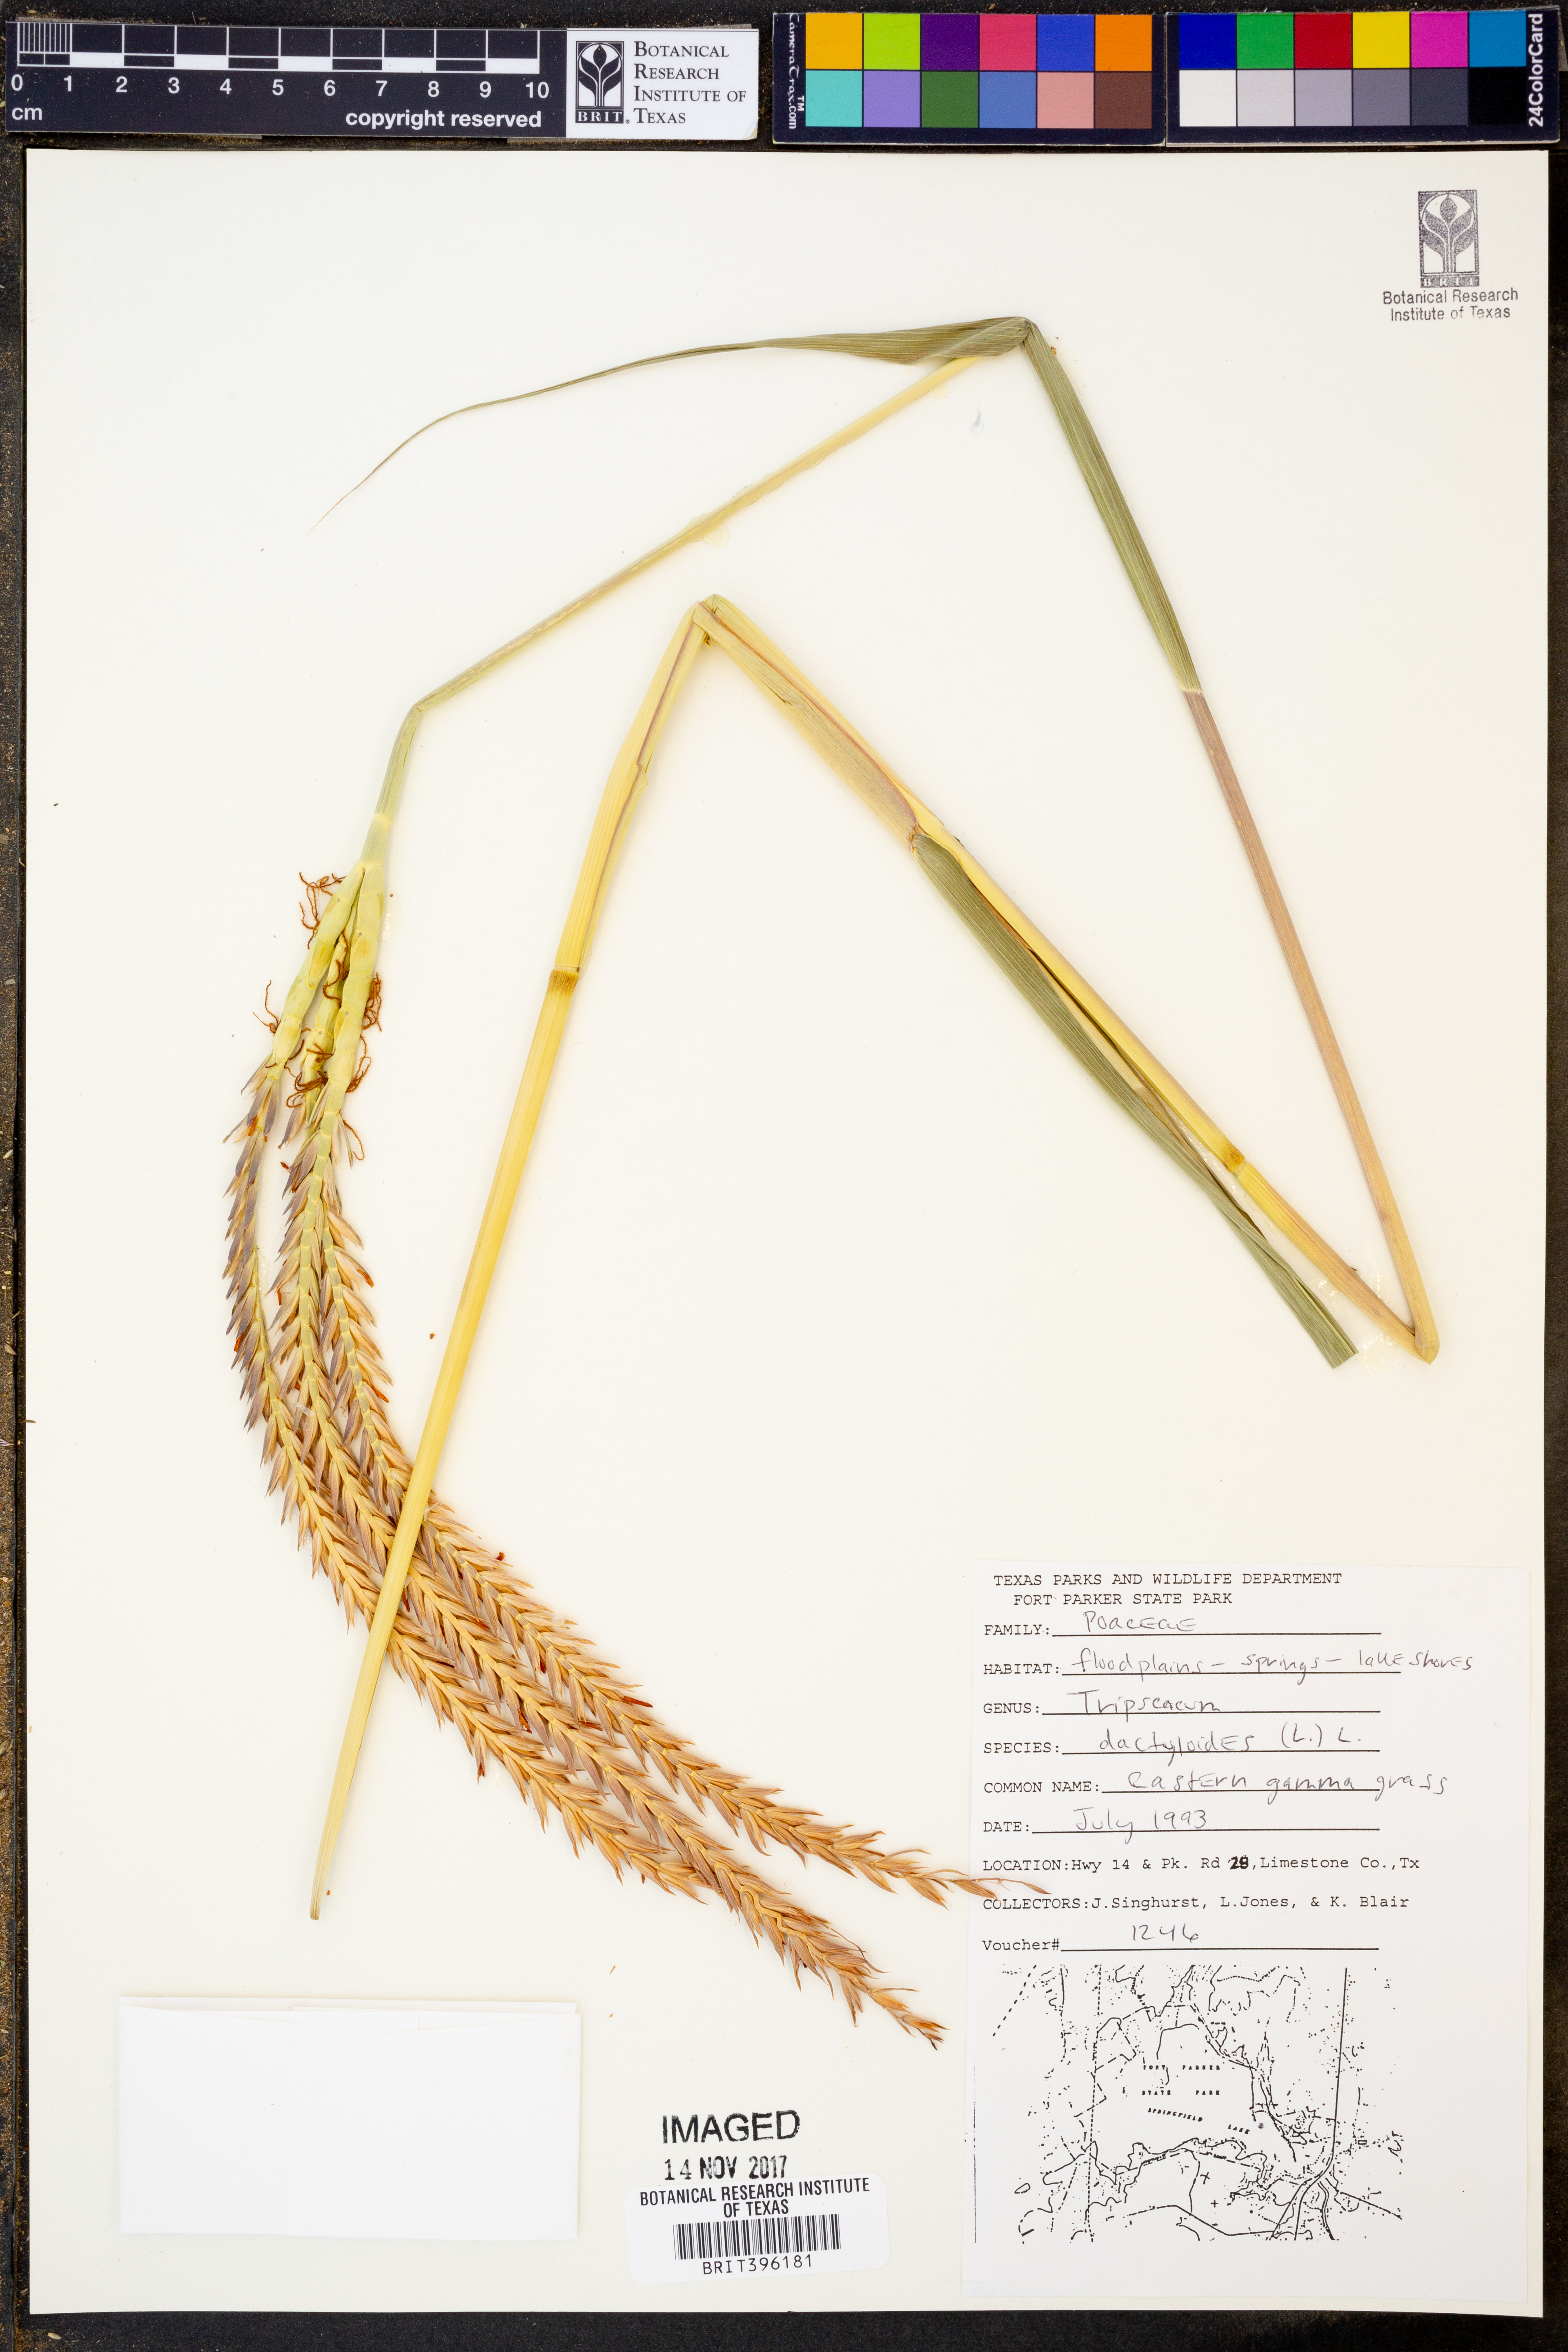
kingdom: Plantae
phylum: Tracheophyta
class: Liliopsida
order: Poales
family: Poaceae
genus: Tripsacum
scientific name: Tripsacum dactyloides
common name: Buffalo-grass
